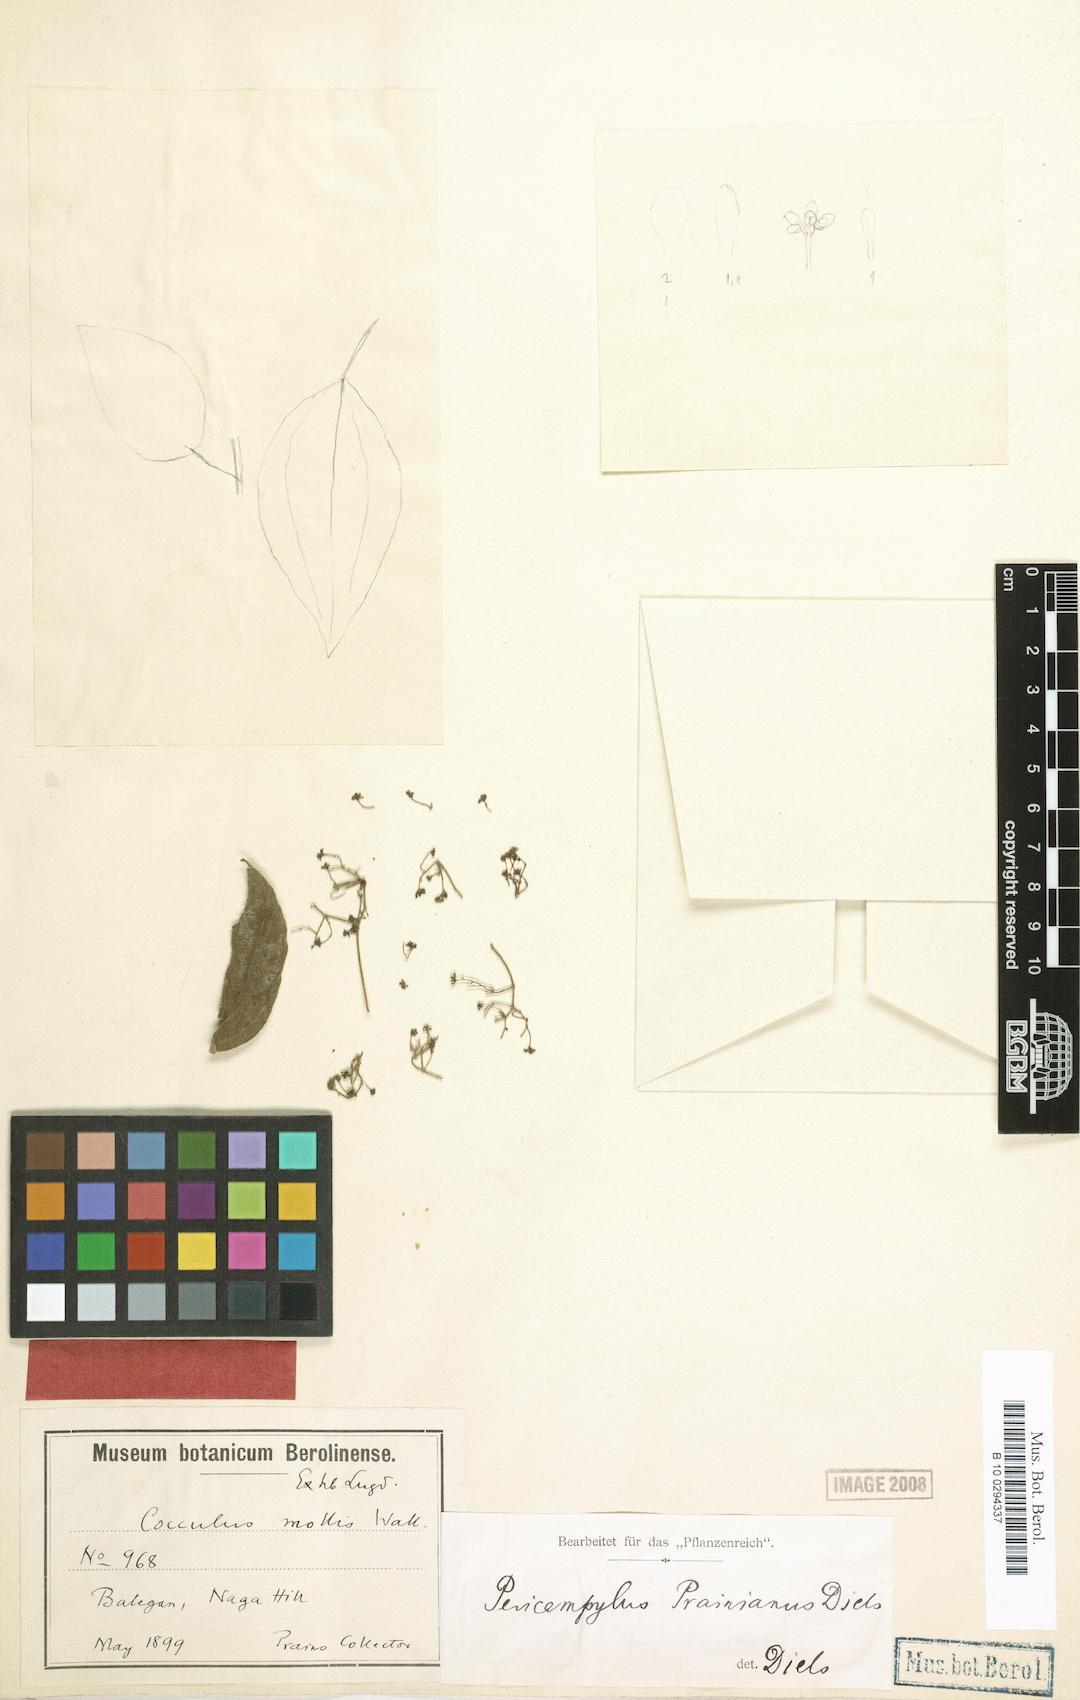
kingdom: Plantae
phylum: Tracheophyta
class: Magnoliopsida
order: Ranunculales
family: Menispermaceae
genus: Cocculus
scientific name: Cocculus prainianus
